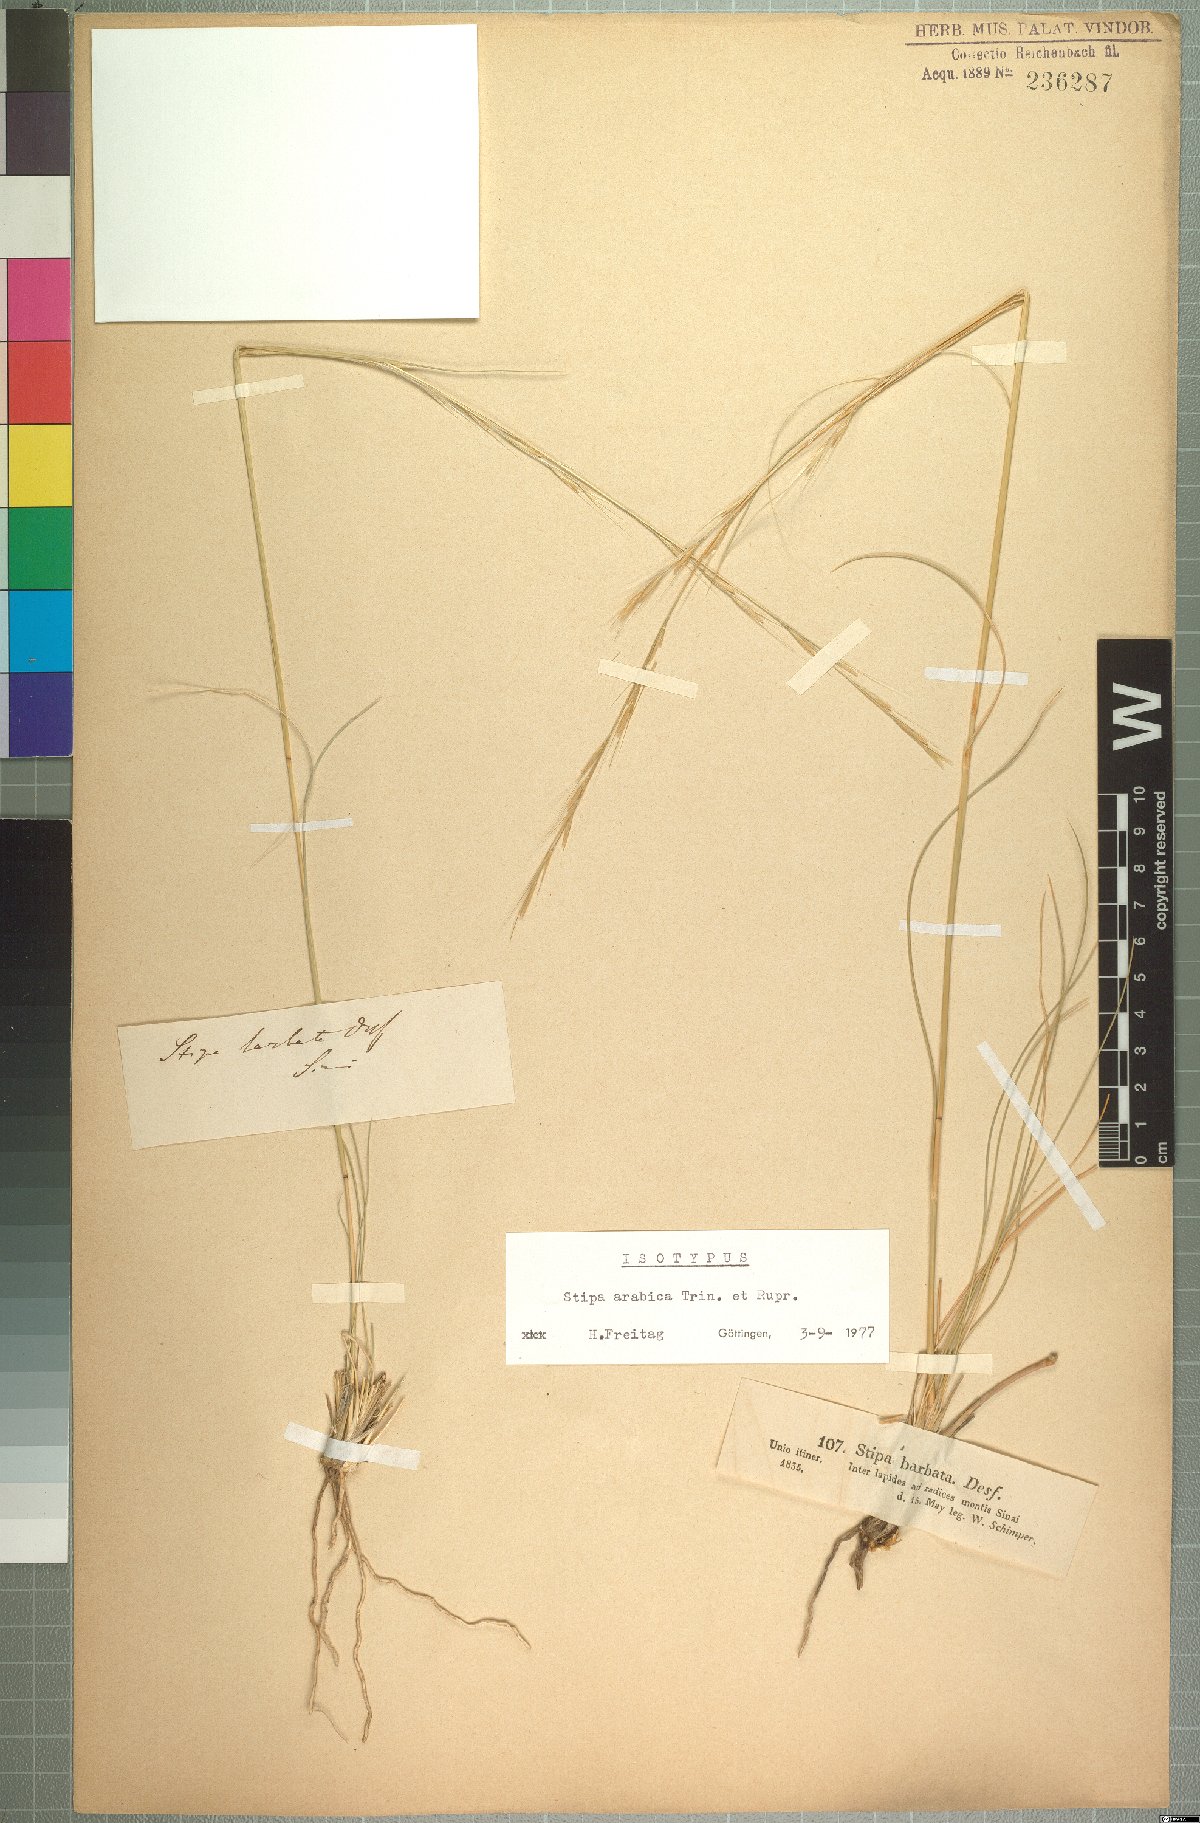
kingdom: Plantae
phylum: Tracheophyta
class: Liliopsida
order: Poales
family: Poaceae
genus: Stipa
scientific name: Stipa arabica
